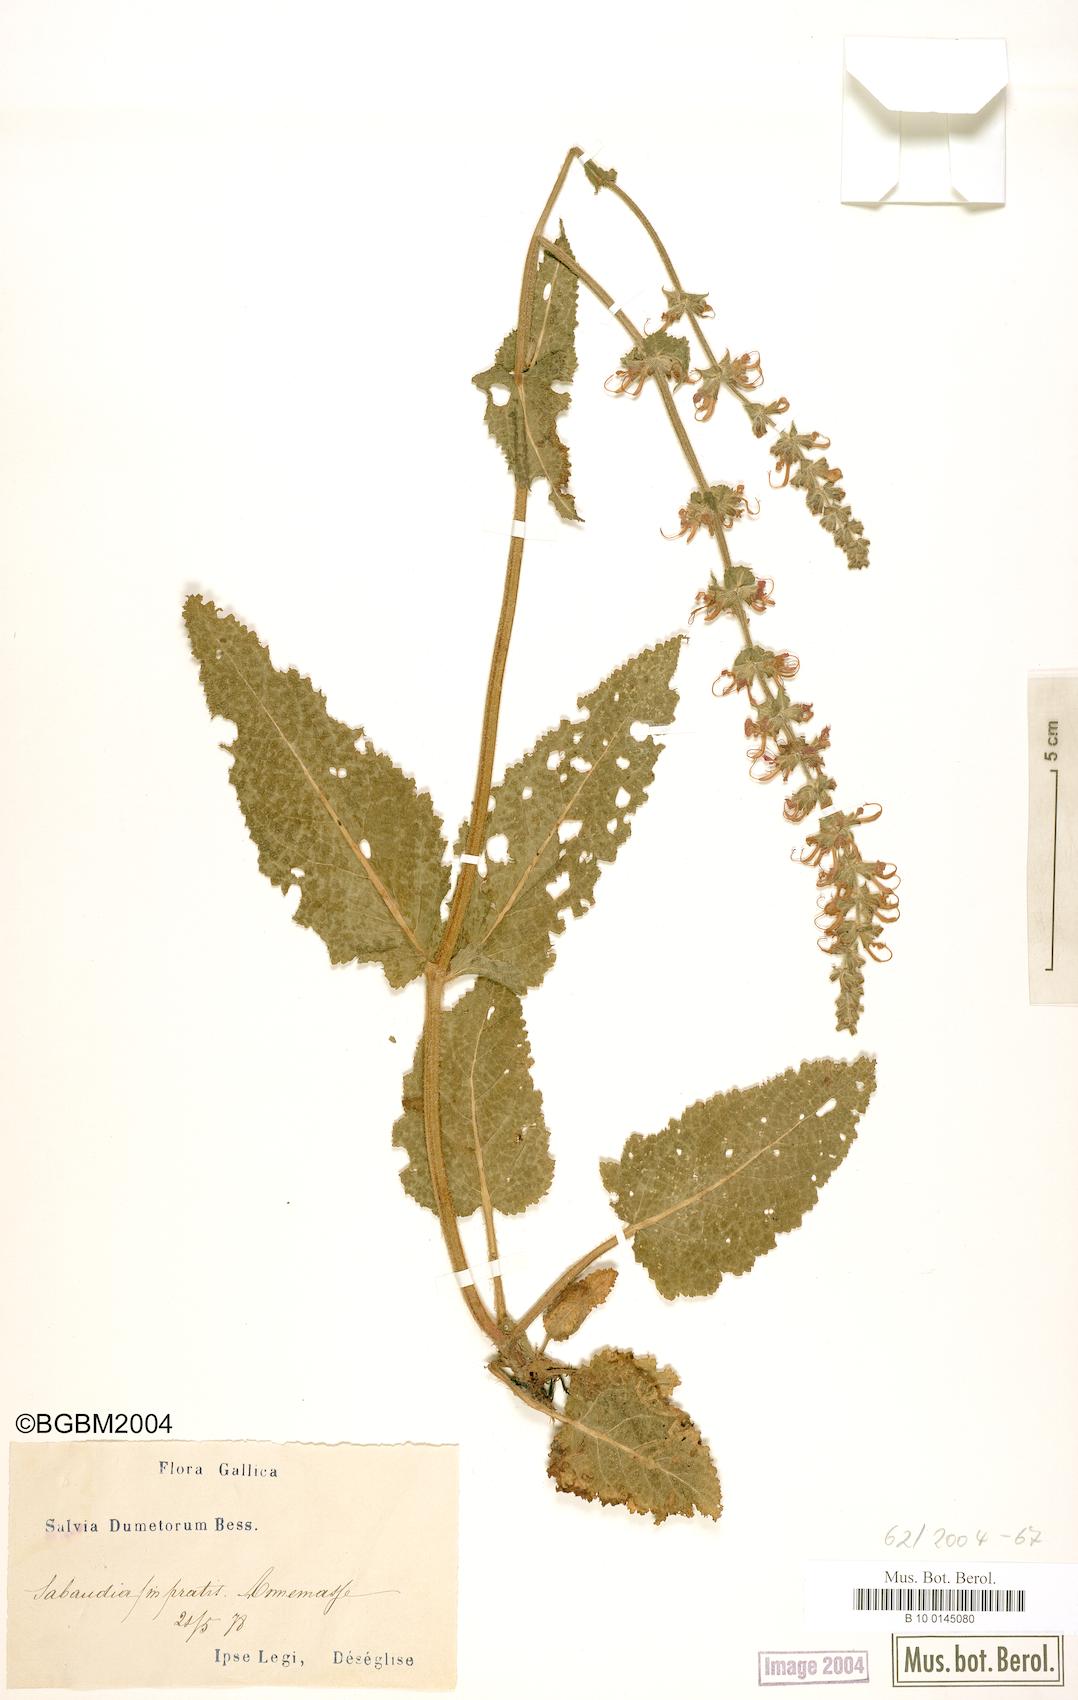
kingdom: Plantae
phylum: Tracheophyta
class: Magnoliopsida
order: Lamiales
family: Lamiaceae
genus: Salvia
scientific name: Salvia dumetorum
